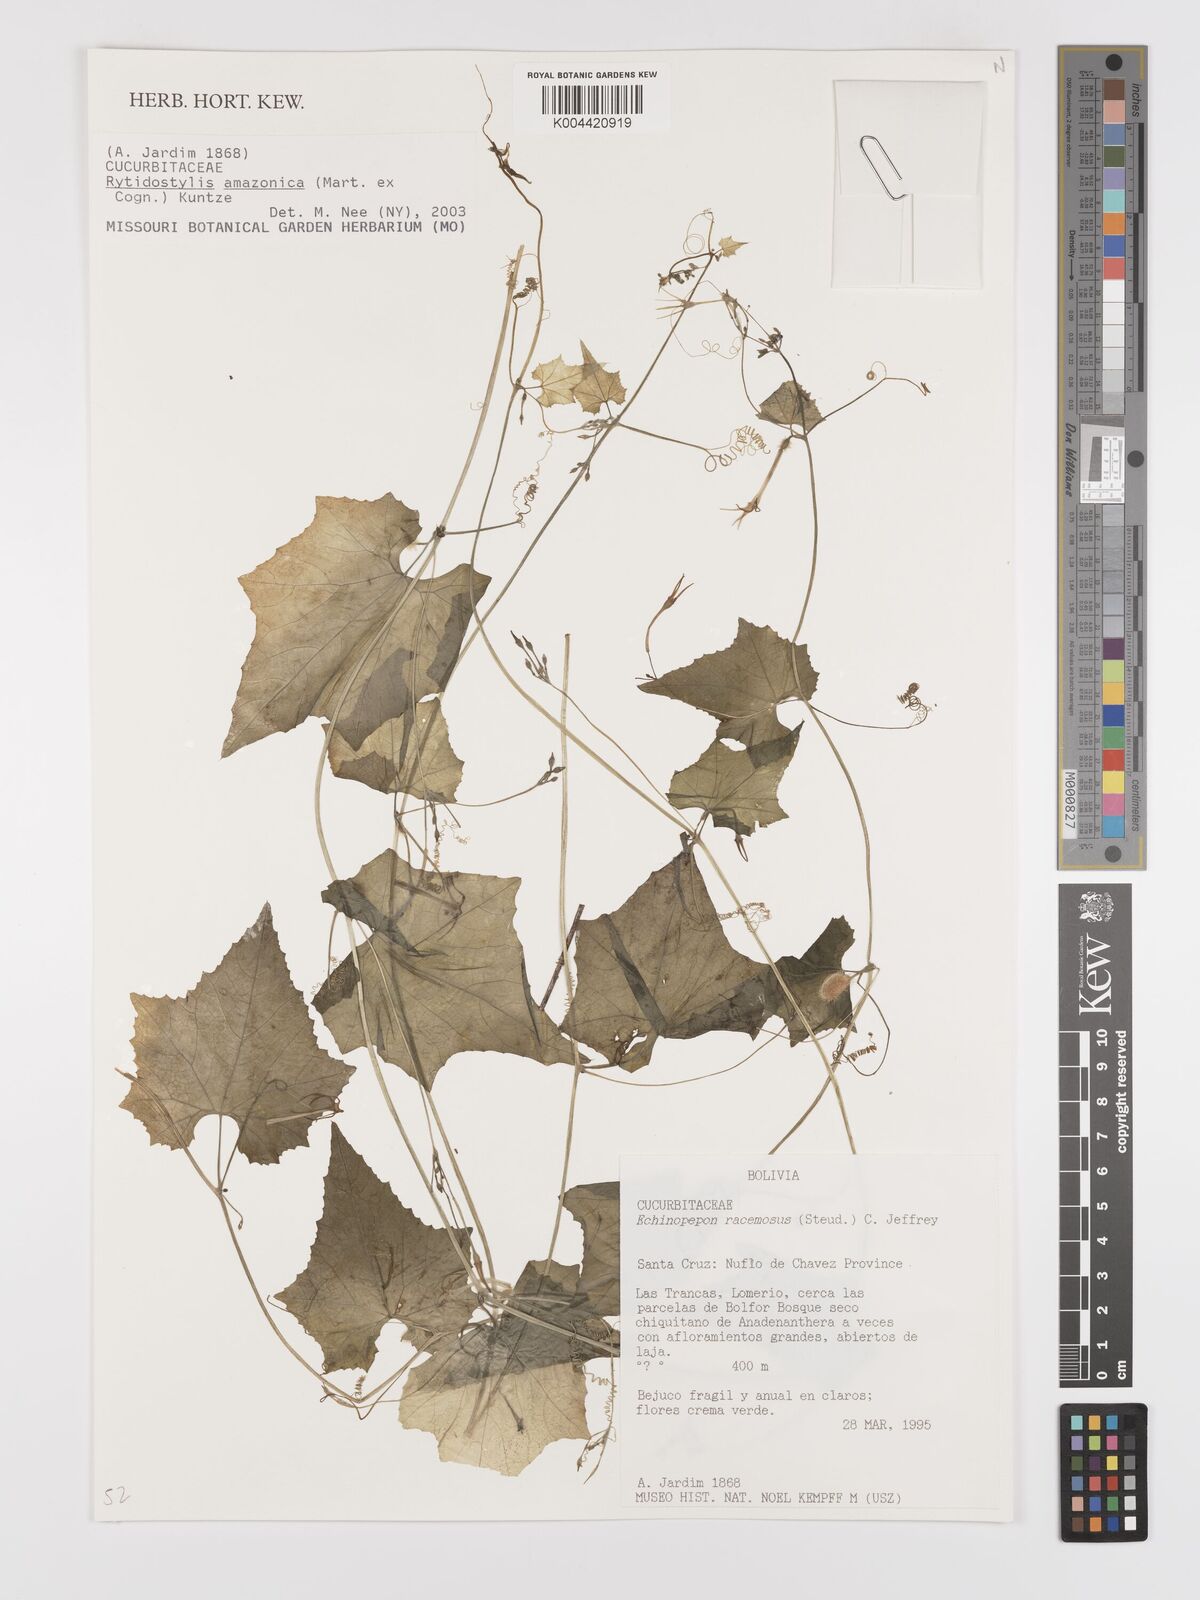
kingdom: Plantae
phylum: Tracheophyta
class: Magnoliopsida
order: Cucurbitales
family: Cucurbitaceae
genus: Cyclanthera
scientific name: Cyclanthera carthagenensis
